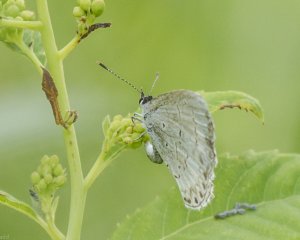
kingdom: Animalia
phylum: Arthropoda
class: Insecta
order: Lepidoptera
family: Lycaenidae
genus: Cyaniris
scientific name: Cyaniris neglecta
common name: Summer Azure
